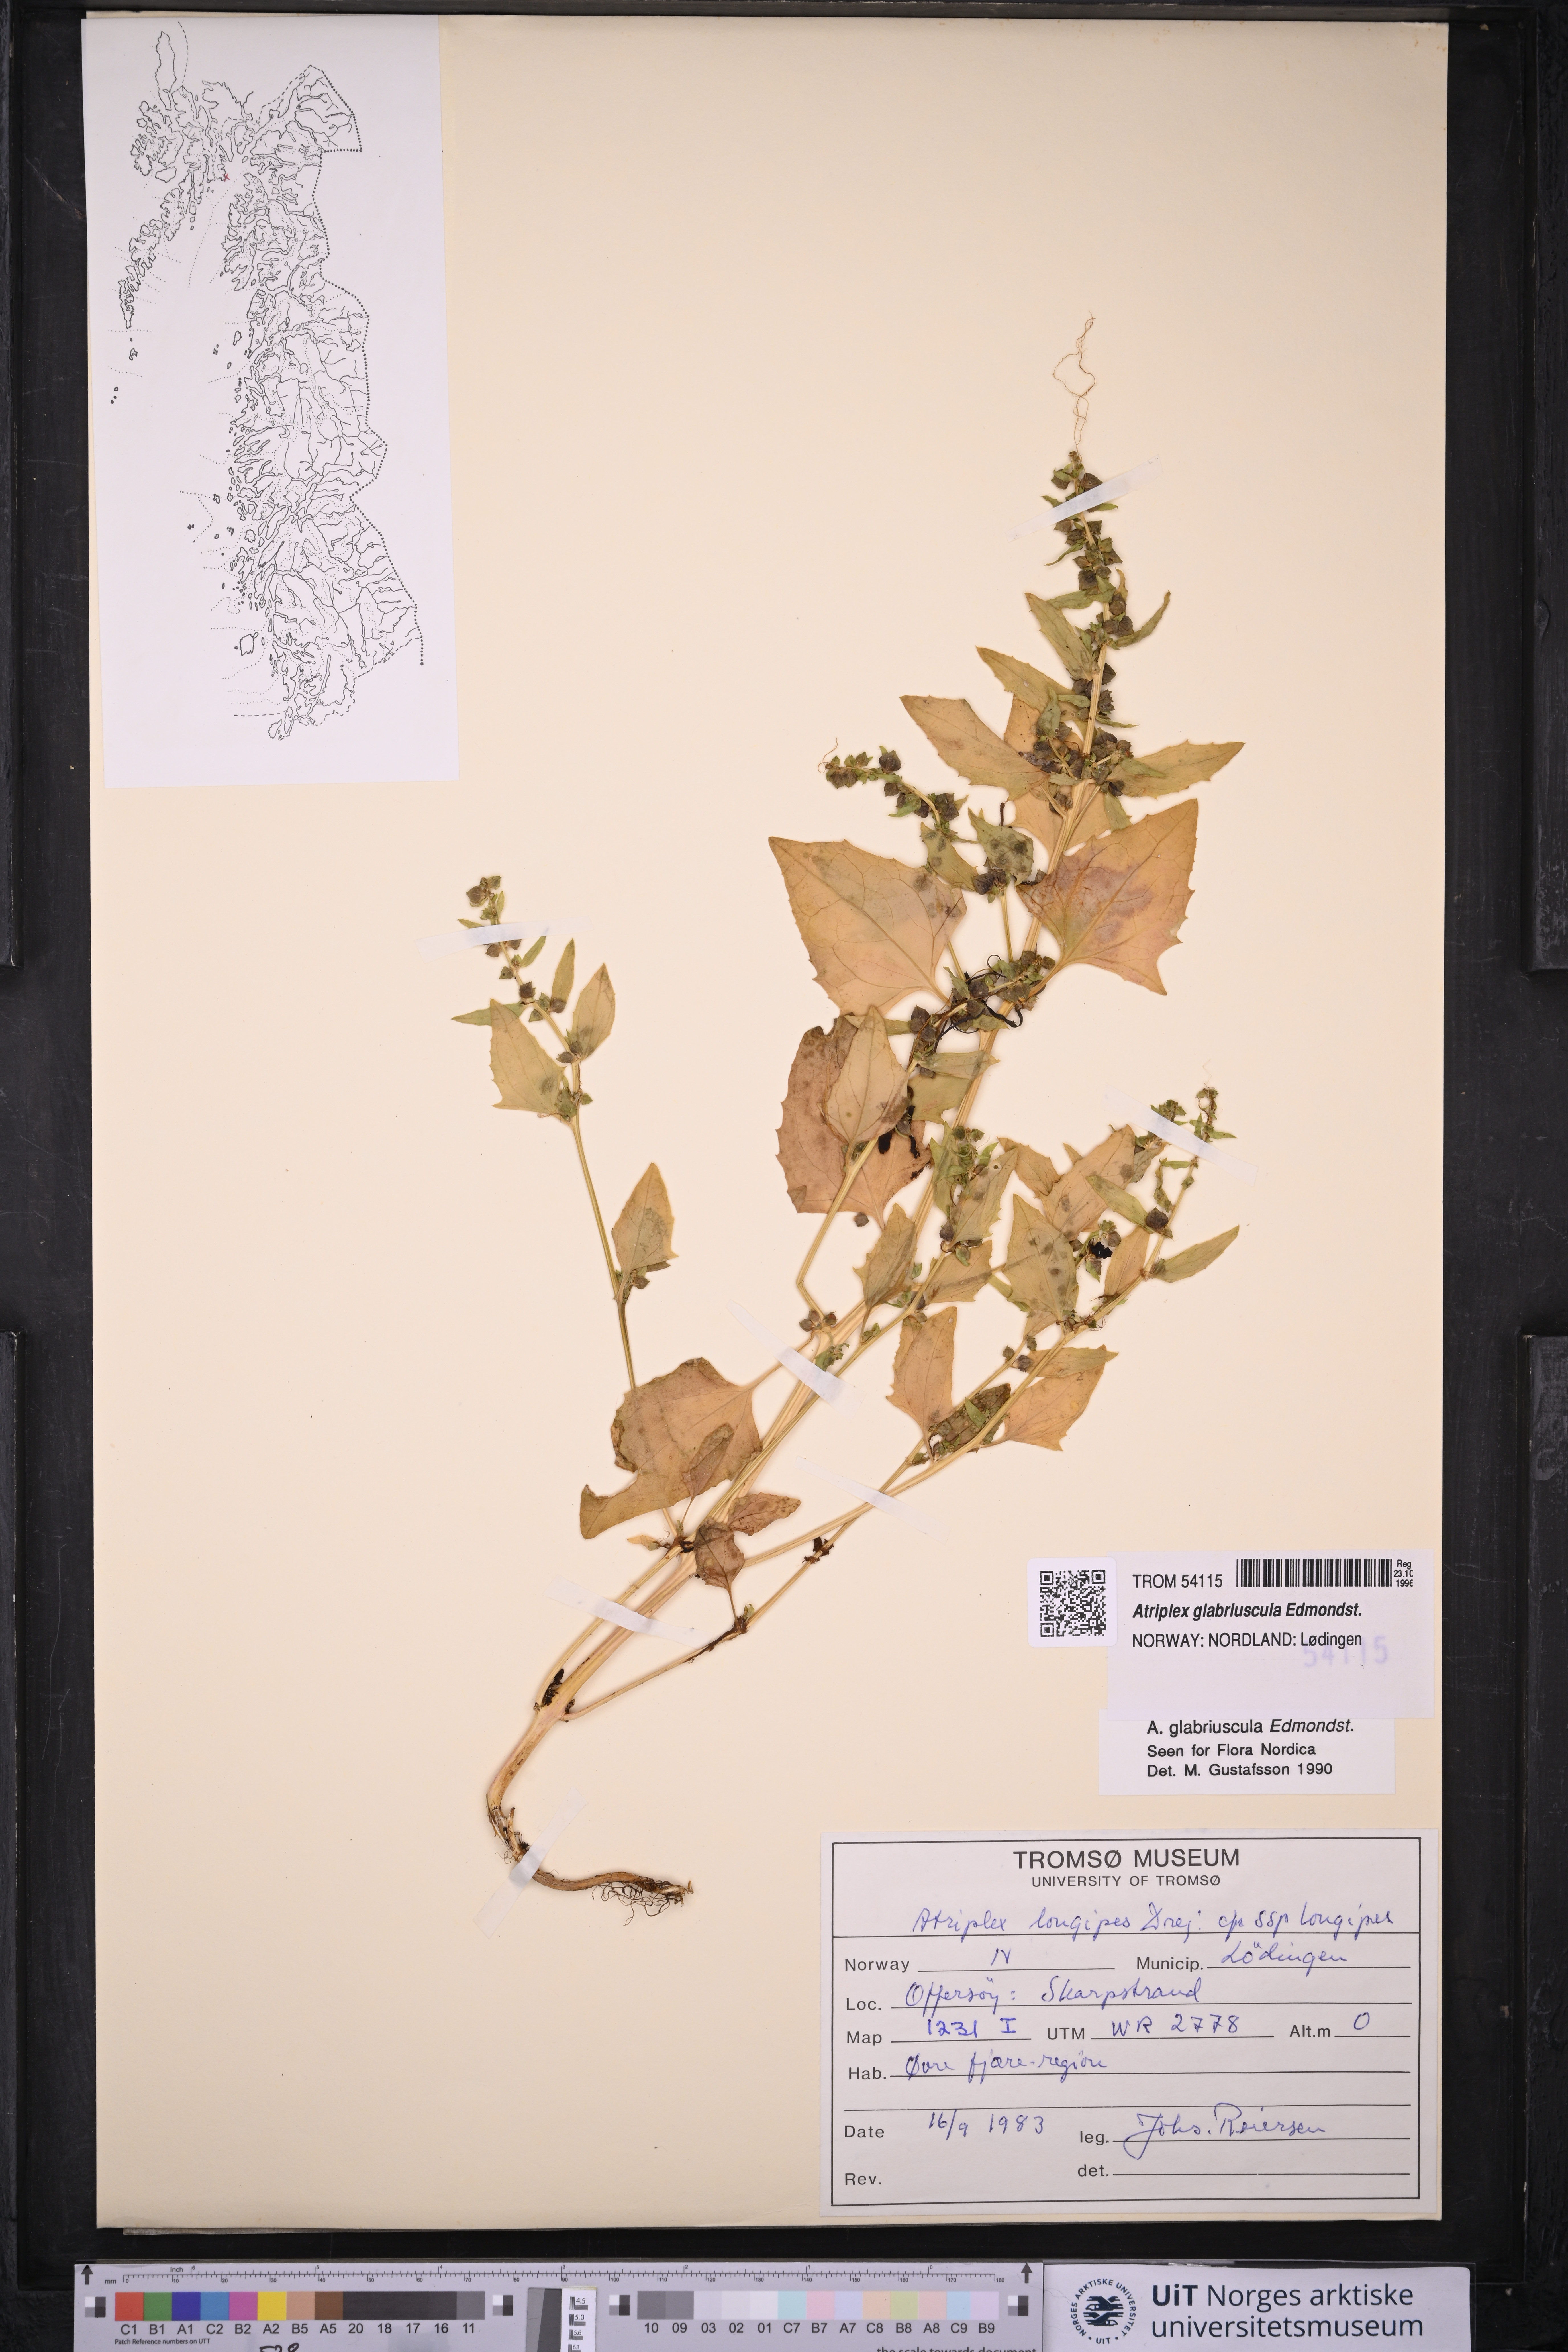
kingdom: Plantae
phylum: Tracheophyta
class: Magnoliopsida
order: Caryophyllales
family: Amaranthaceae
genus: Atriplex
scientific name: Atriplex glabriuscula
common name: Babington's orache
